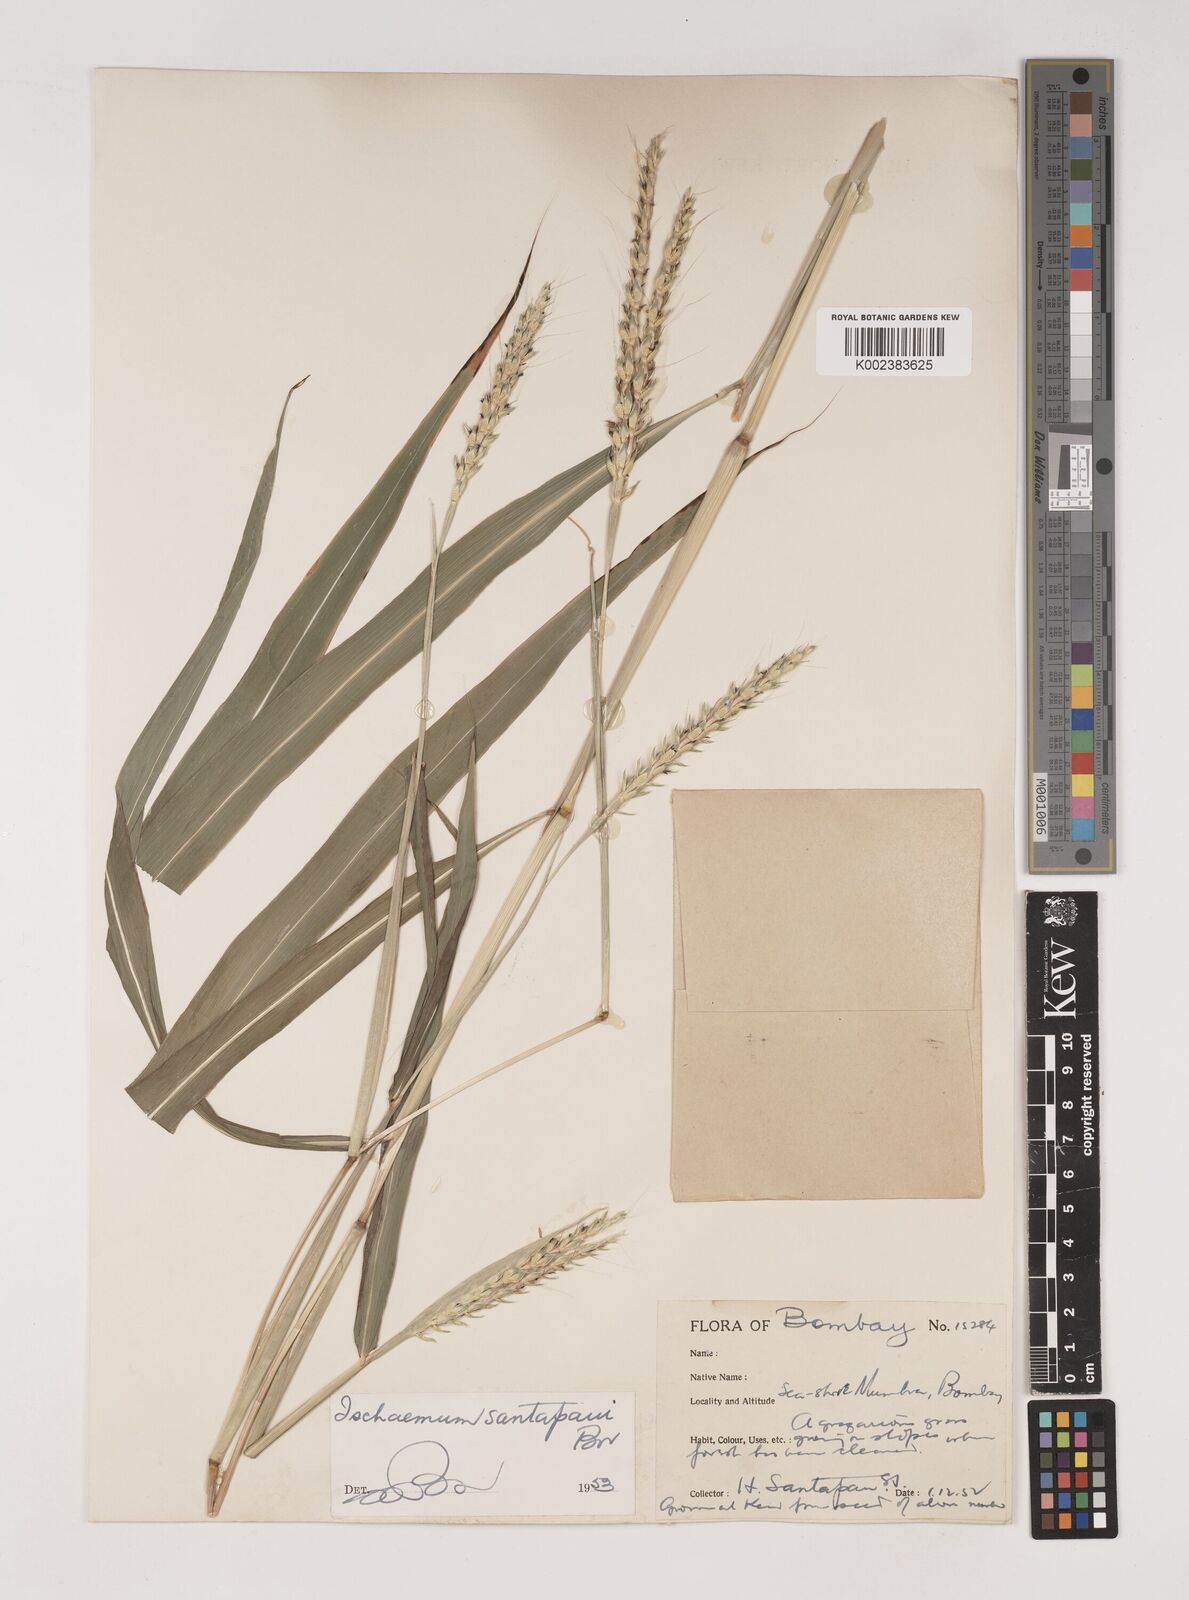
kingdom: Plantae
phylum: Tracheophyta
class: Liliopsida
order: Poales
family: Poaceae
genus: Ischaemum
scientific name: Ischaemum santapaui
